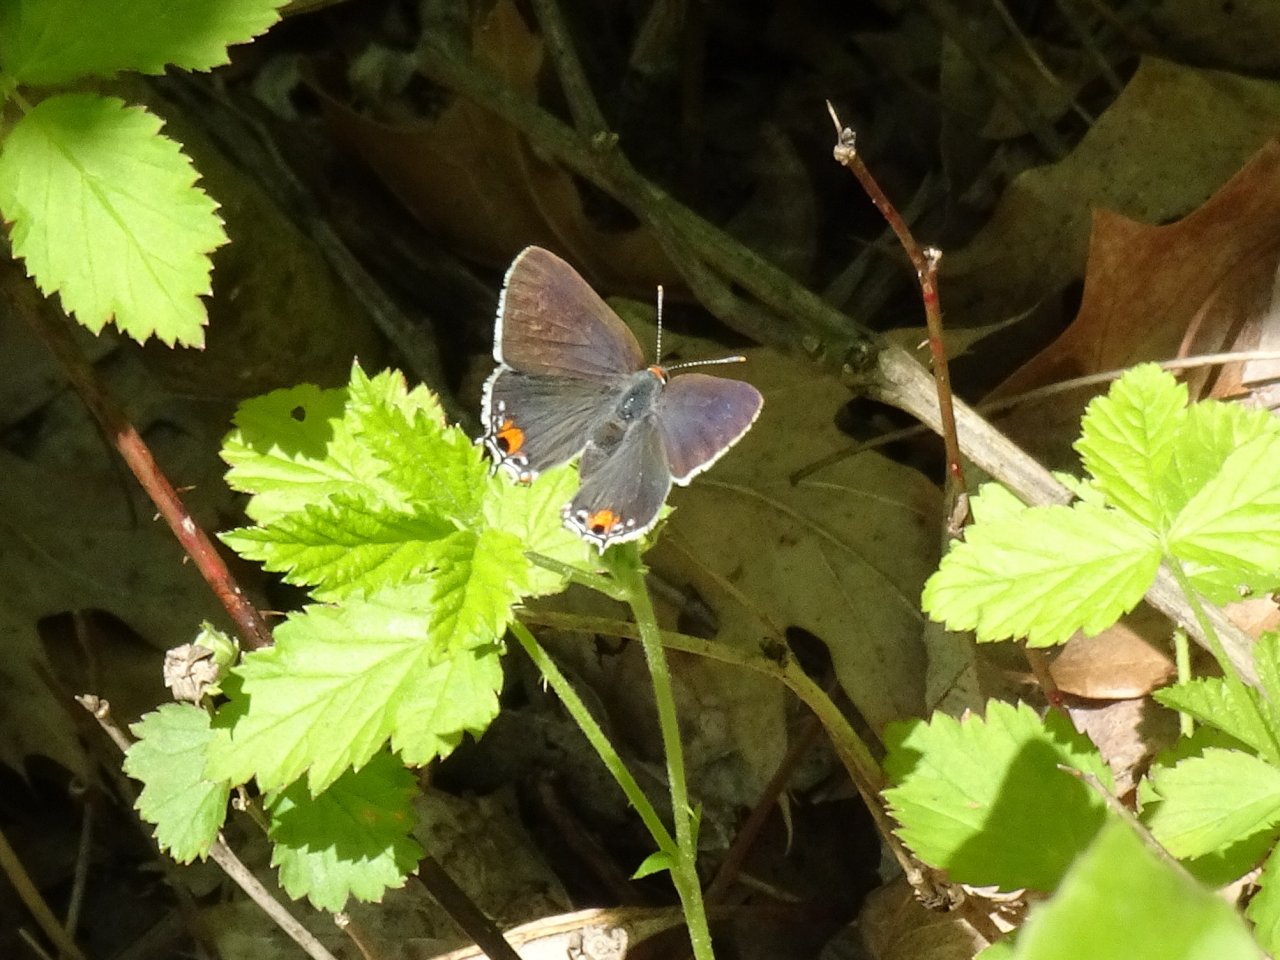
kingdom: Animalia
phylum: Arthropoda
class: Insecta
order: Lepidoptera
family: Lycaenidae
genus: Strymon
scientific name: Strymon melinus
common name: Gray Hairstreak
